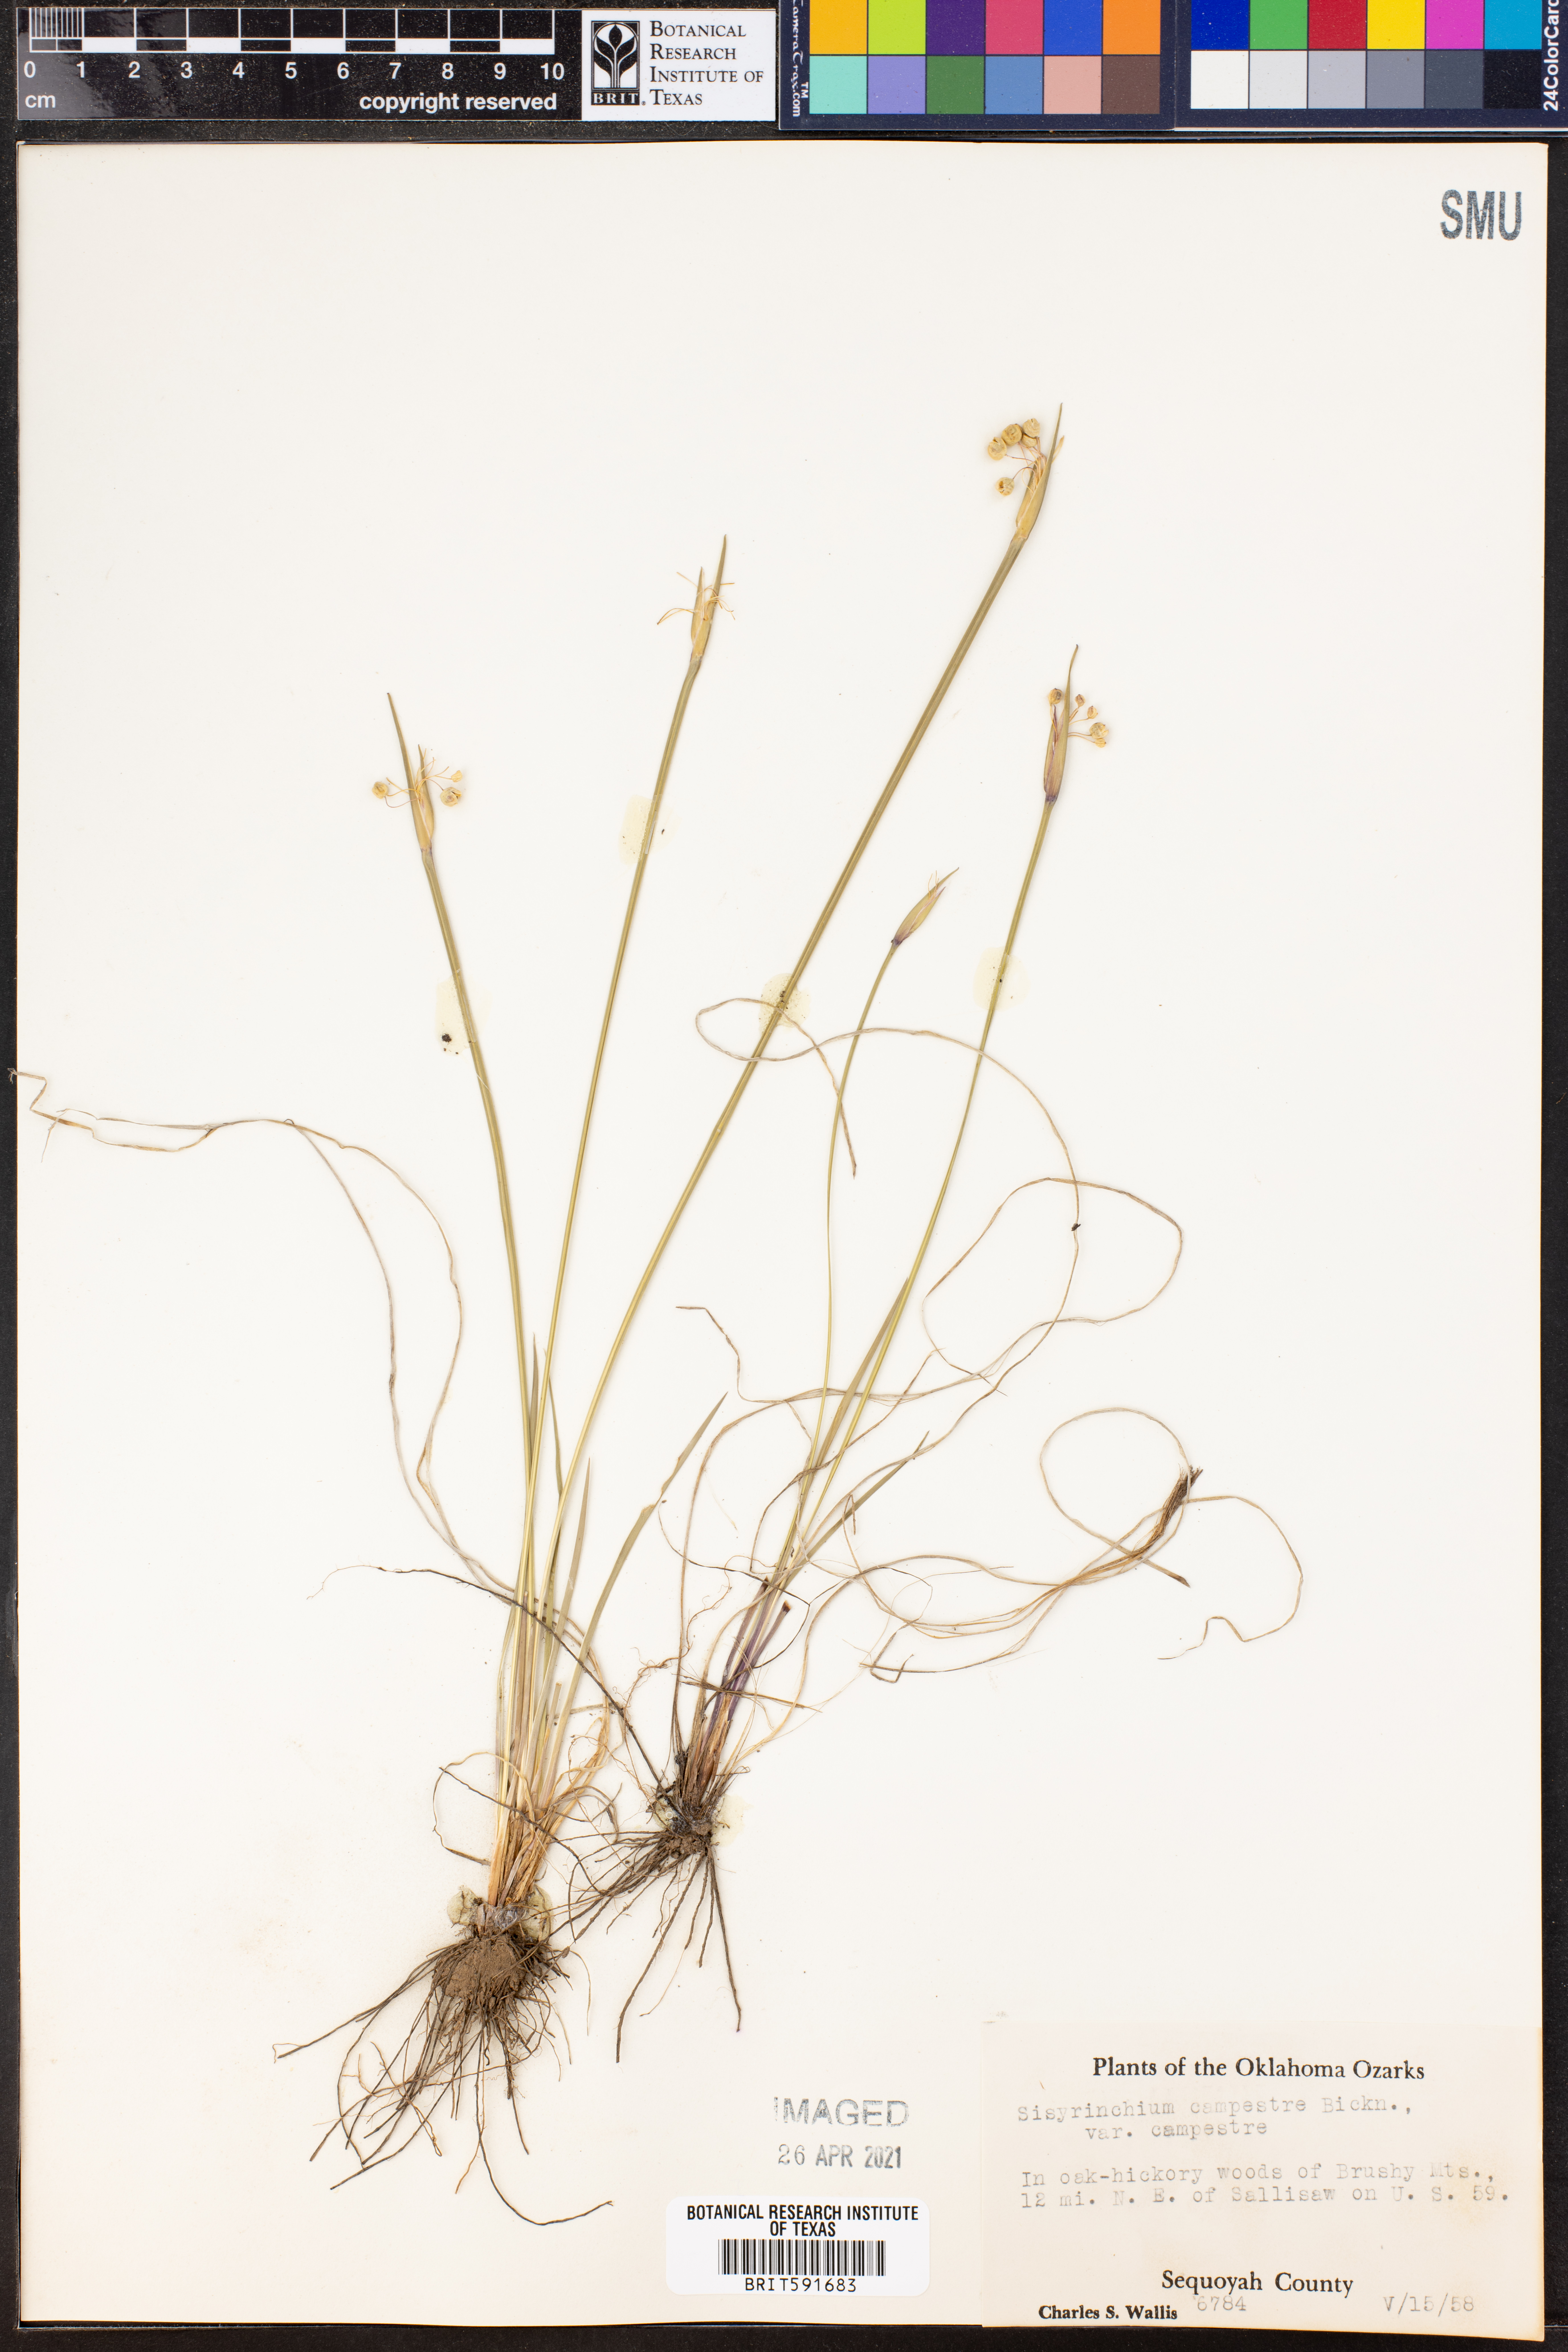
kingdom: Plantae
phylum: Tracheophyta
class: Liliopsida
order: Asparagales
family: Iridaceae
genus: Sisyrinchium
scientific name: Sisyrinchium campestre
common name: Prairie blue-eyed-grass
